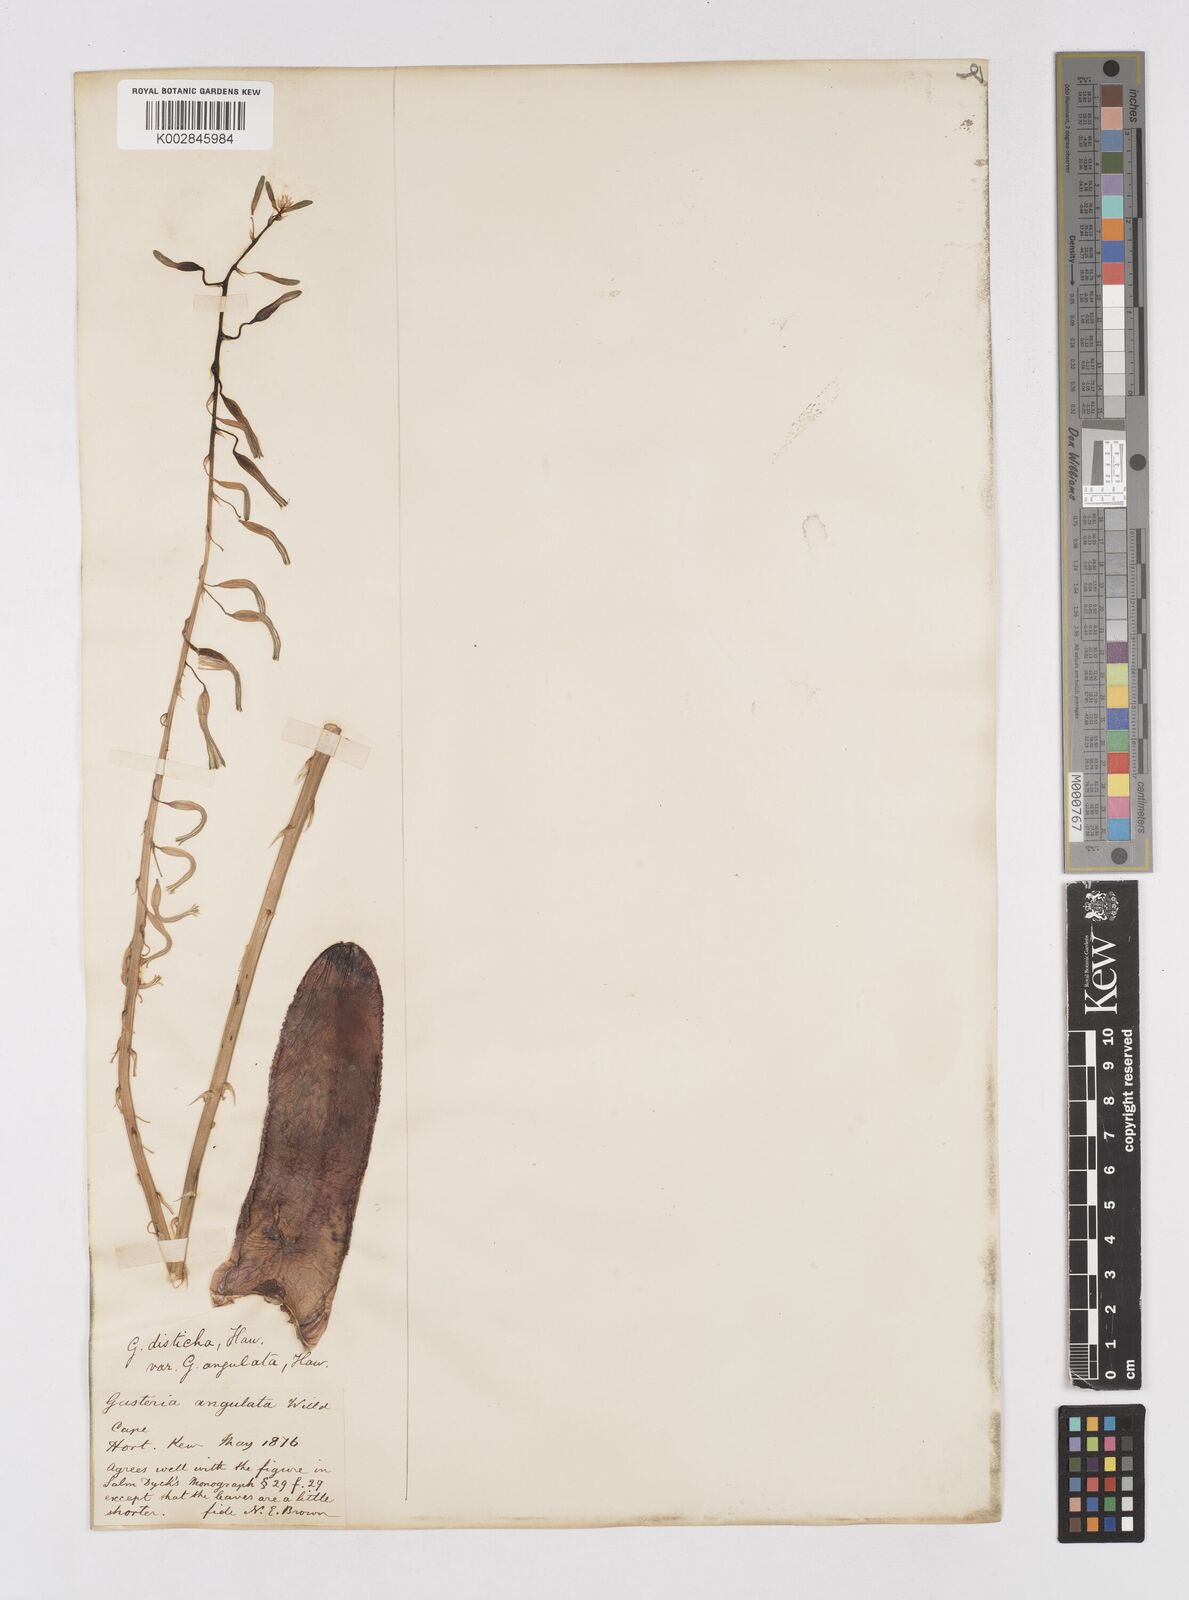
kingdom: Plantae
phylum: Tracheophyta
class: Liliopsida
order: Asparagales
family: Asphodelaceae
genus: Gasteria
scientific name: Gasteria
